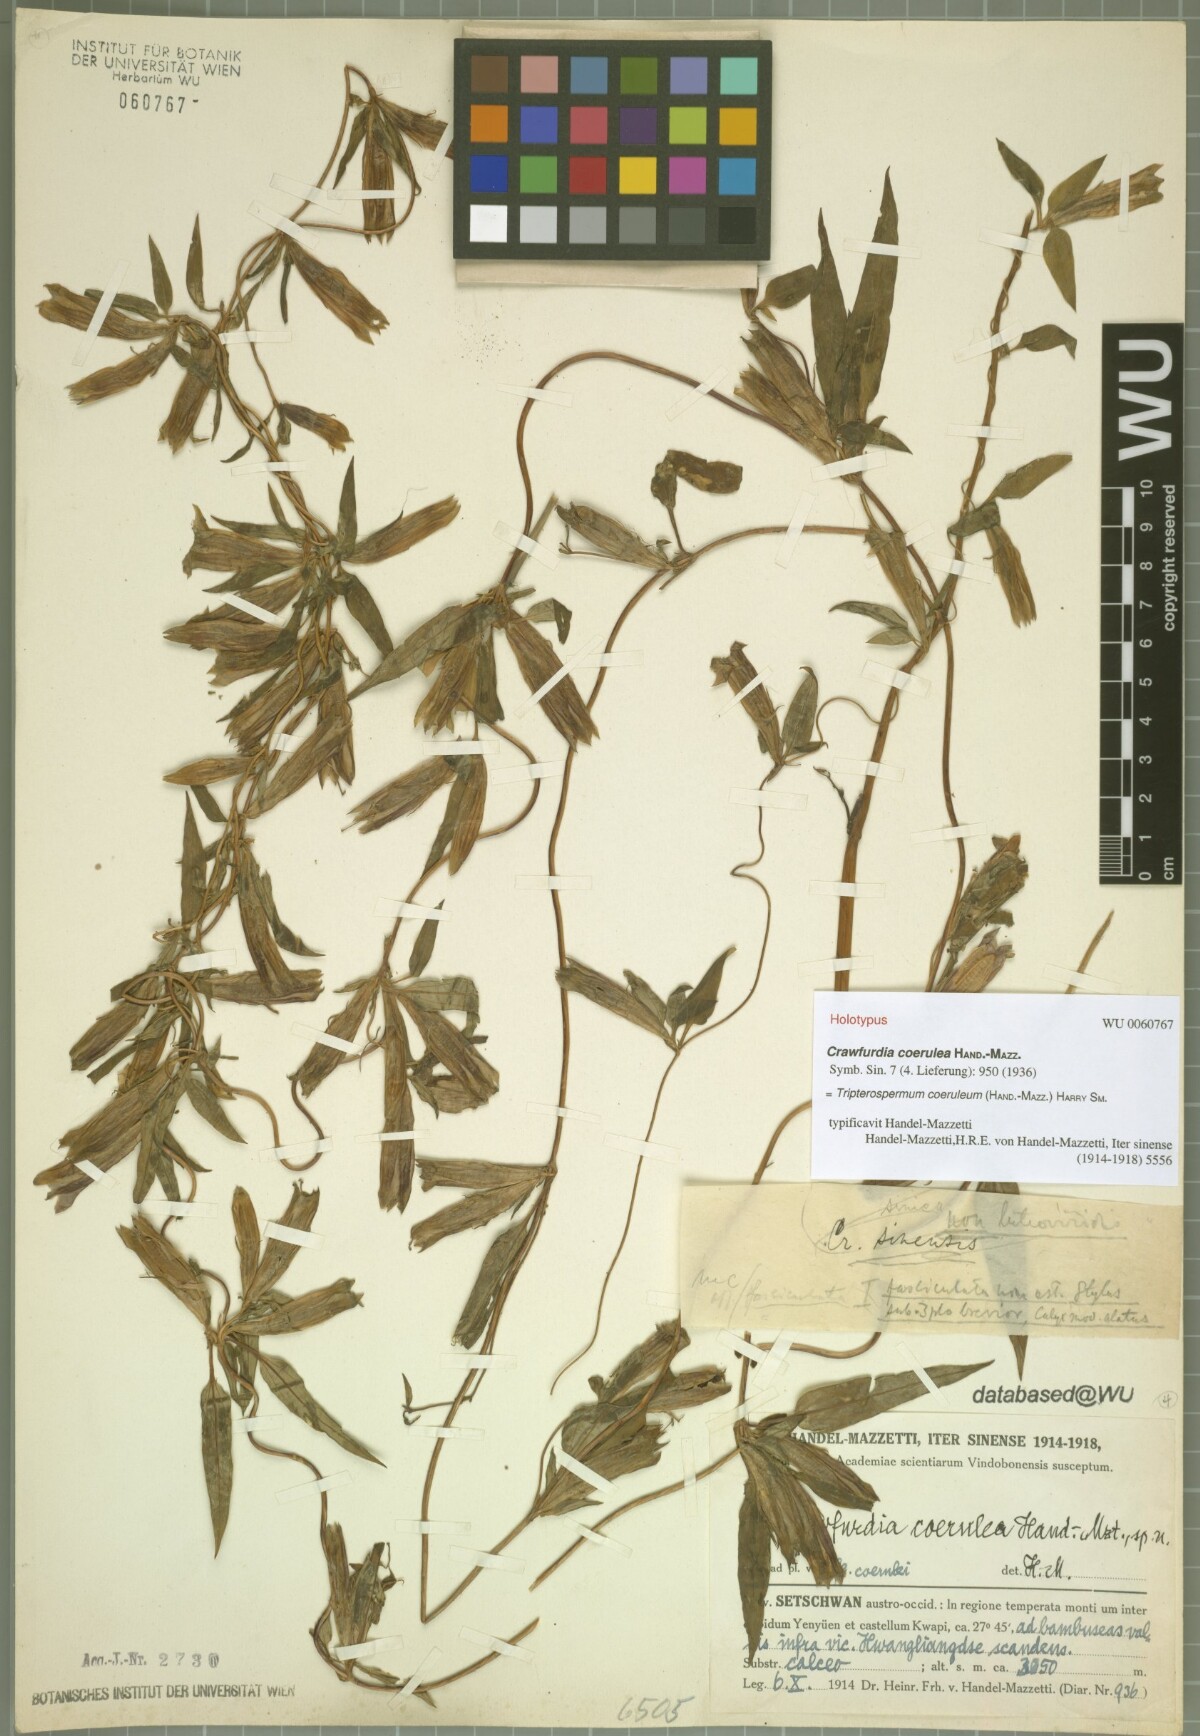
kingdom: Plantae
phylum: Tracheophyta
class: Magnoliopsida
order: Gentianales
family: Gentianaceae
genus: Tripterospermum
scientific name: Tripterospermum coeruleum
